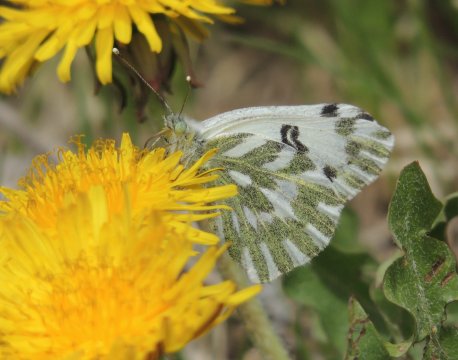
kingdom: Animalia
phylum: Arthropoda
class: Insecta
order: Lepidoptera
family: Pieridae
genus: Pontia
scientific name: Pontia beckerii
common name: Becker's White
